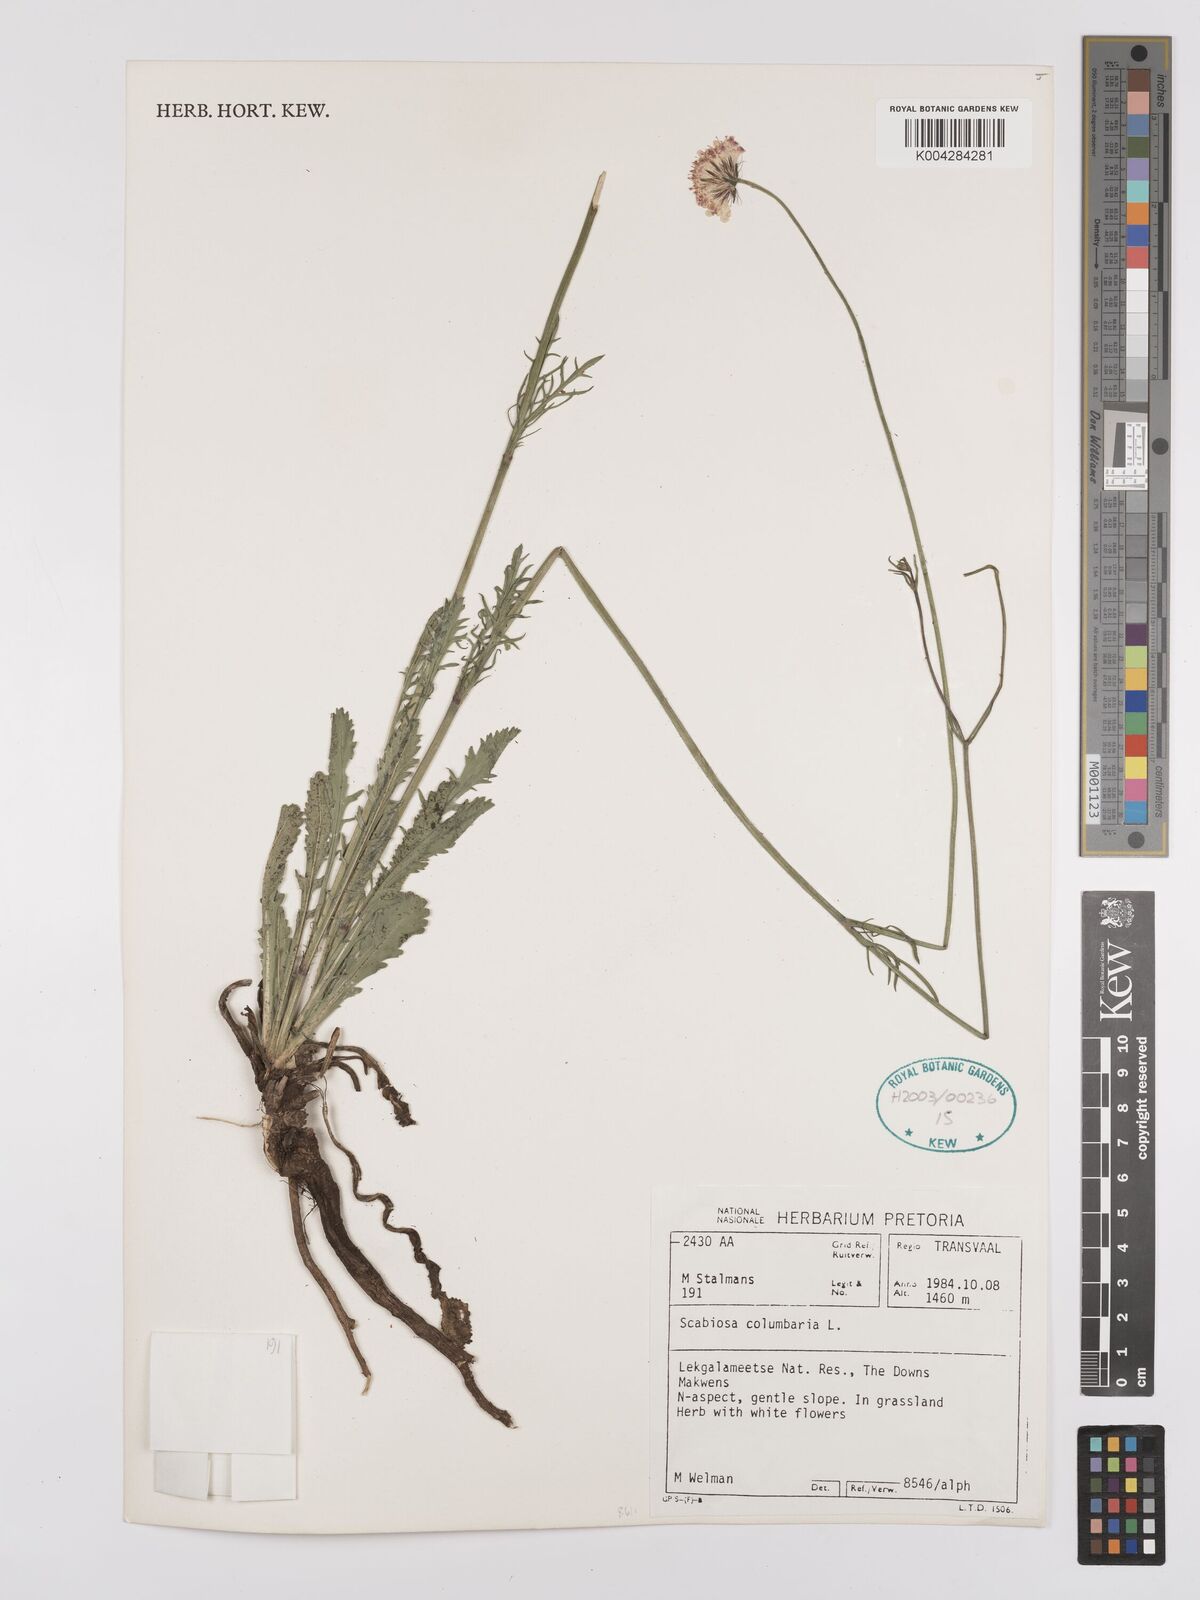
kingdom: Plantae
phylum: Tracheophyta
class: Magnoliopsida
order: Dipsacales
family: Caprifoliaceae
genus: Scabiosa
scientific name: Scabiosa columbaria
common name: Small scabious
